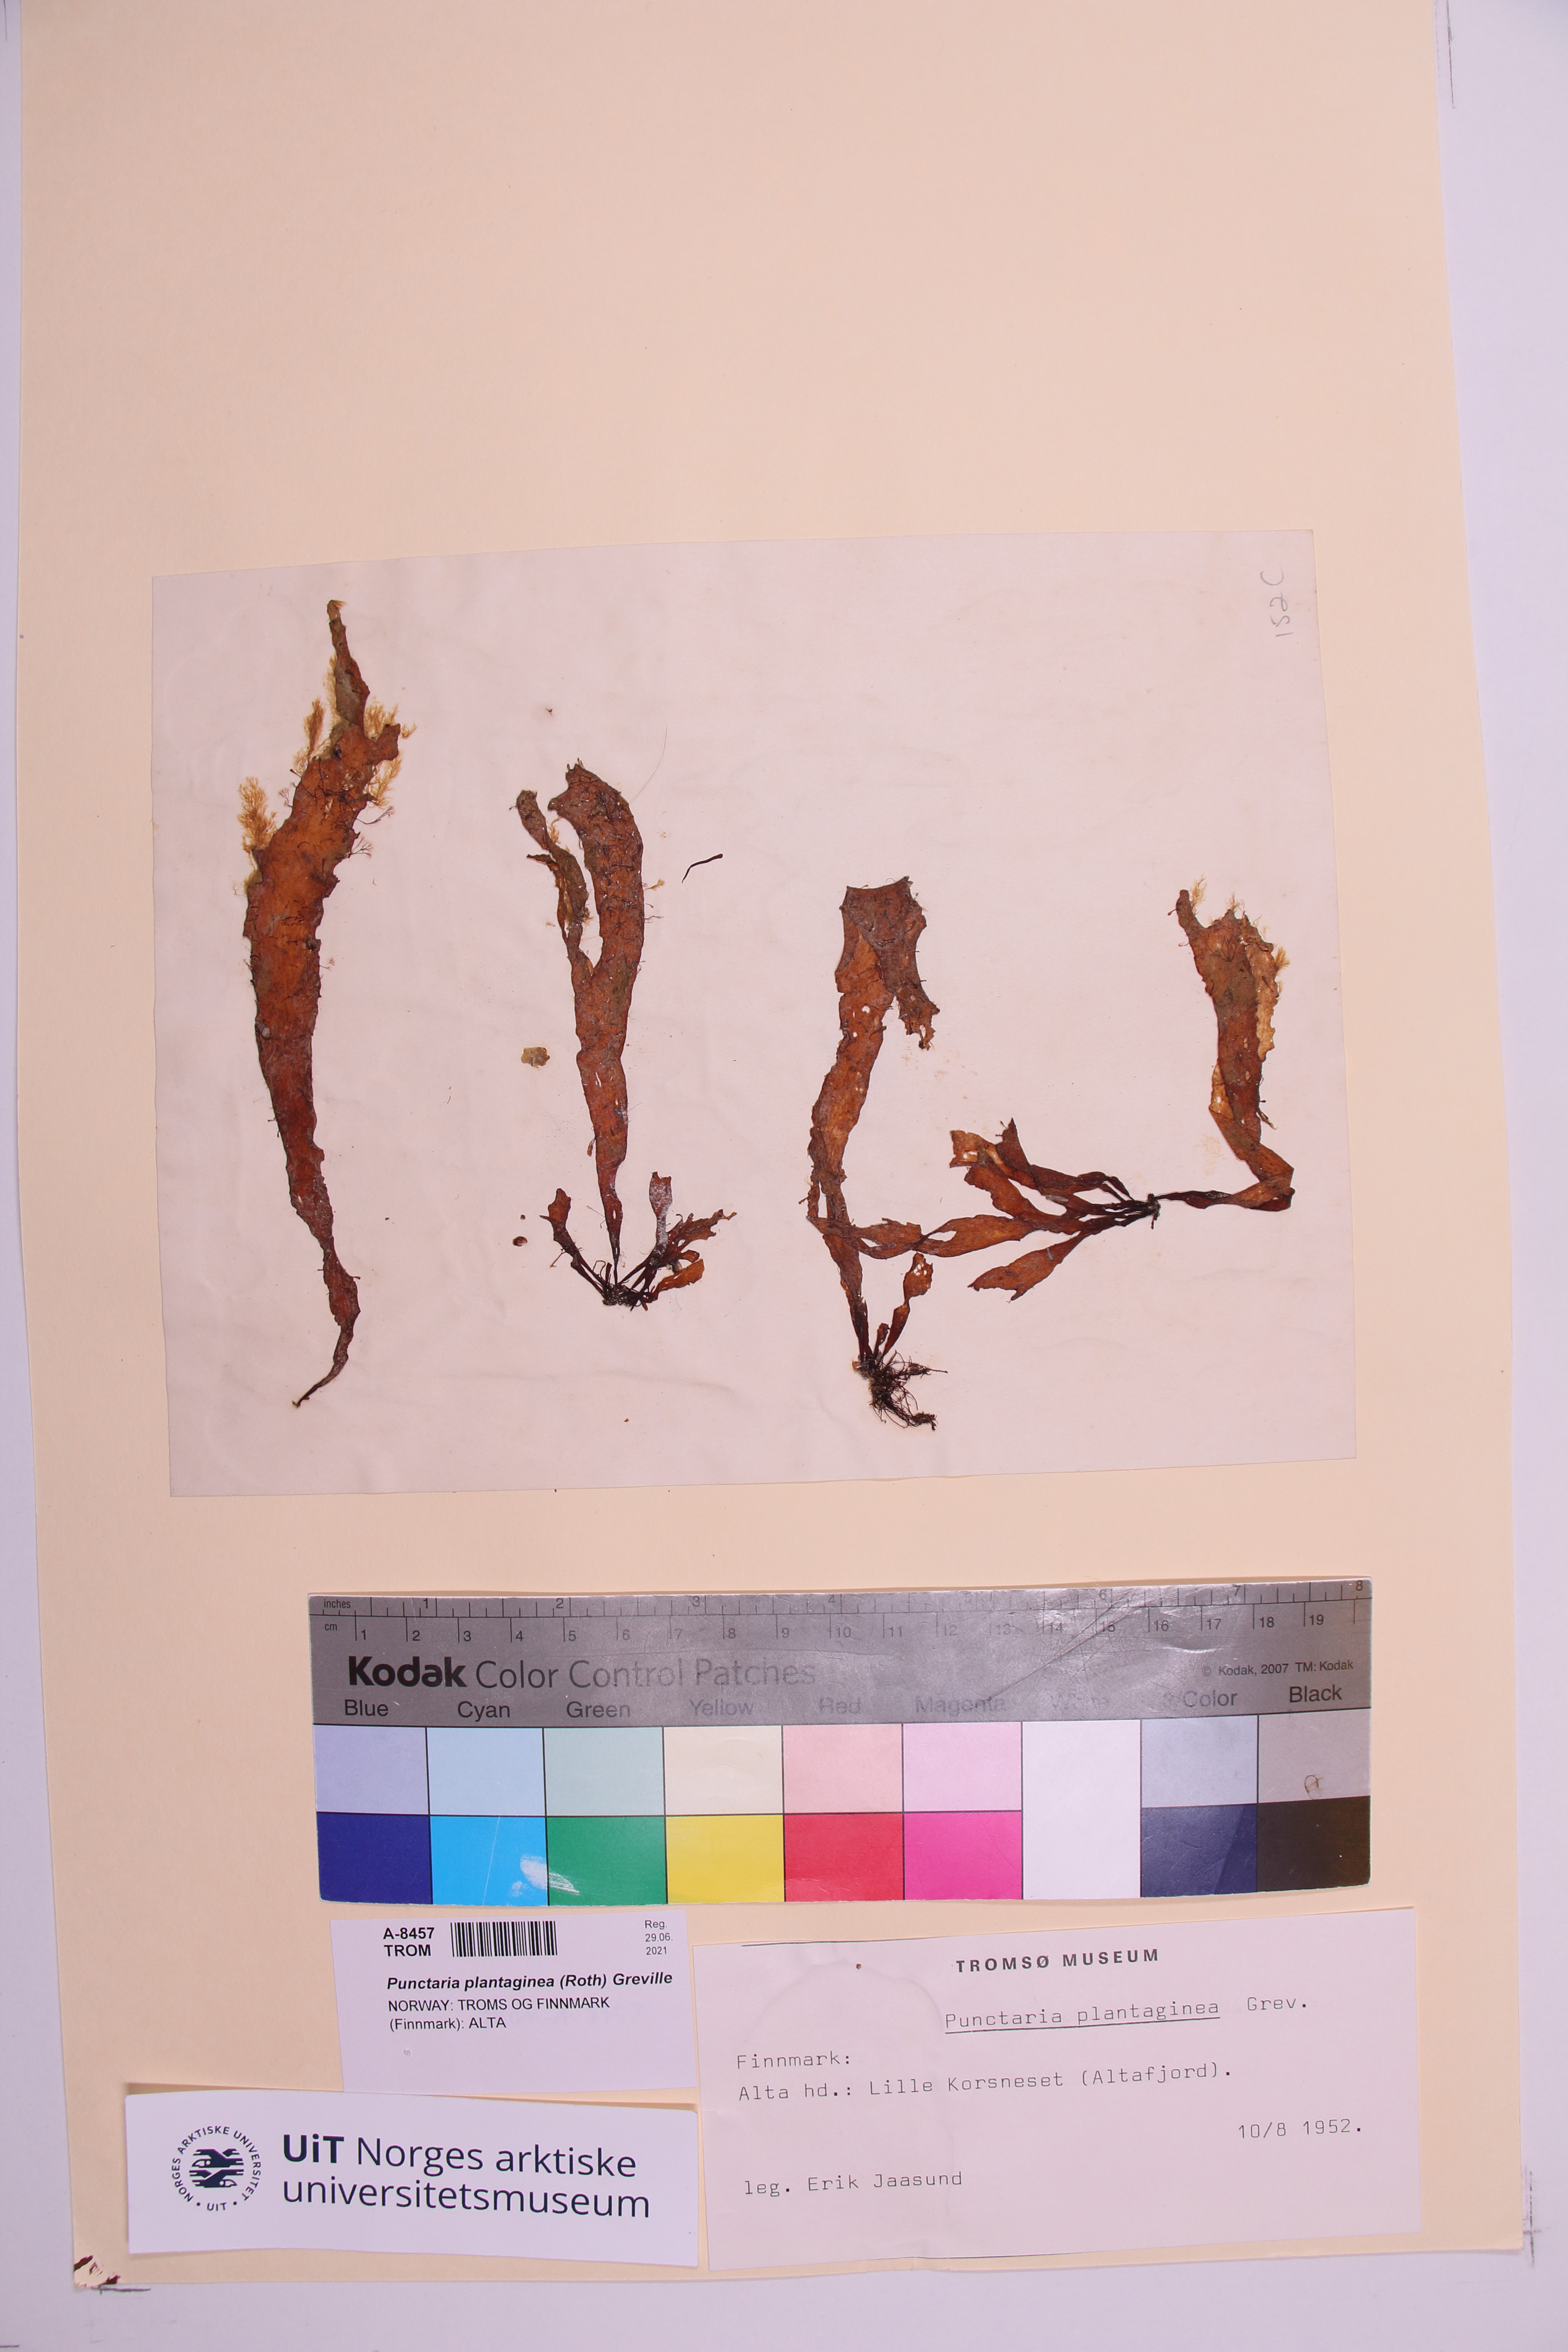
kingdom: Chromista
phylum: Ochrophyta
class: Phaeophyceae
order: Ectocarpales
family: Chordariaceae
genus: Punctaria
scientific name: Punctaria plantaginea
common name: Ribbon weed
